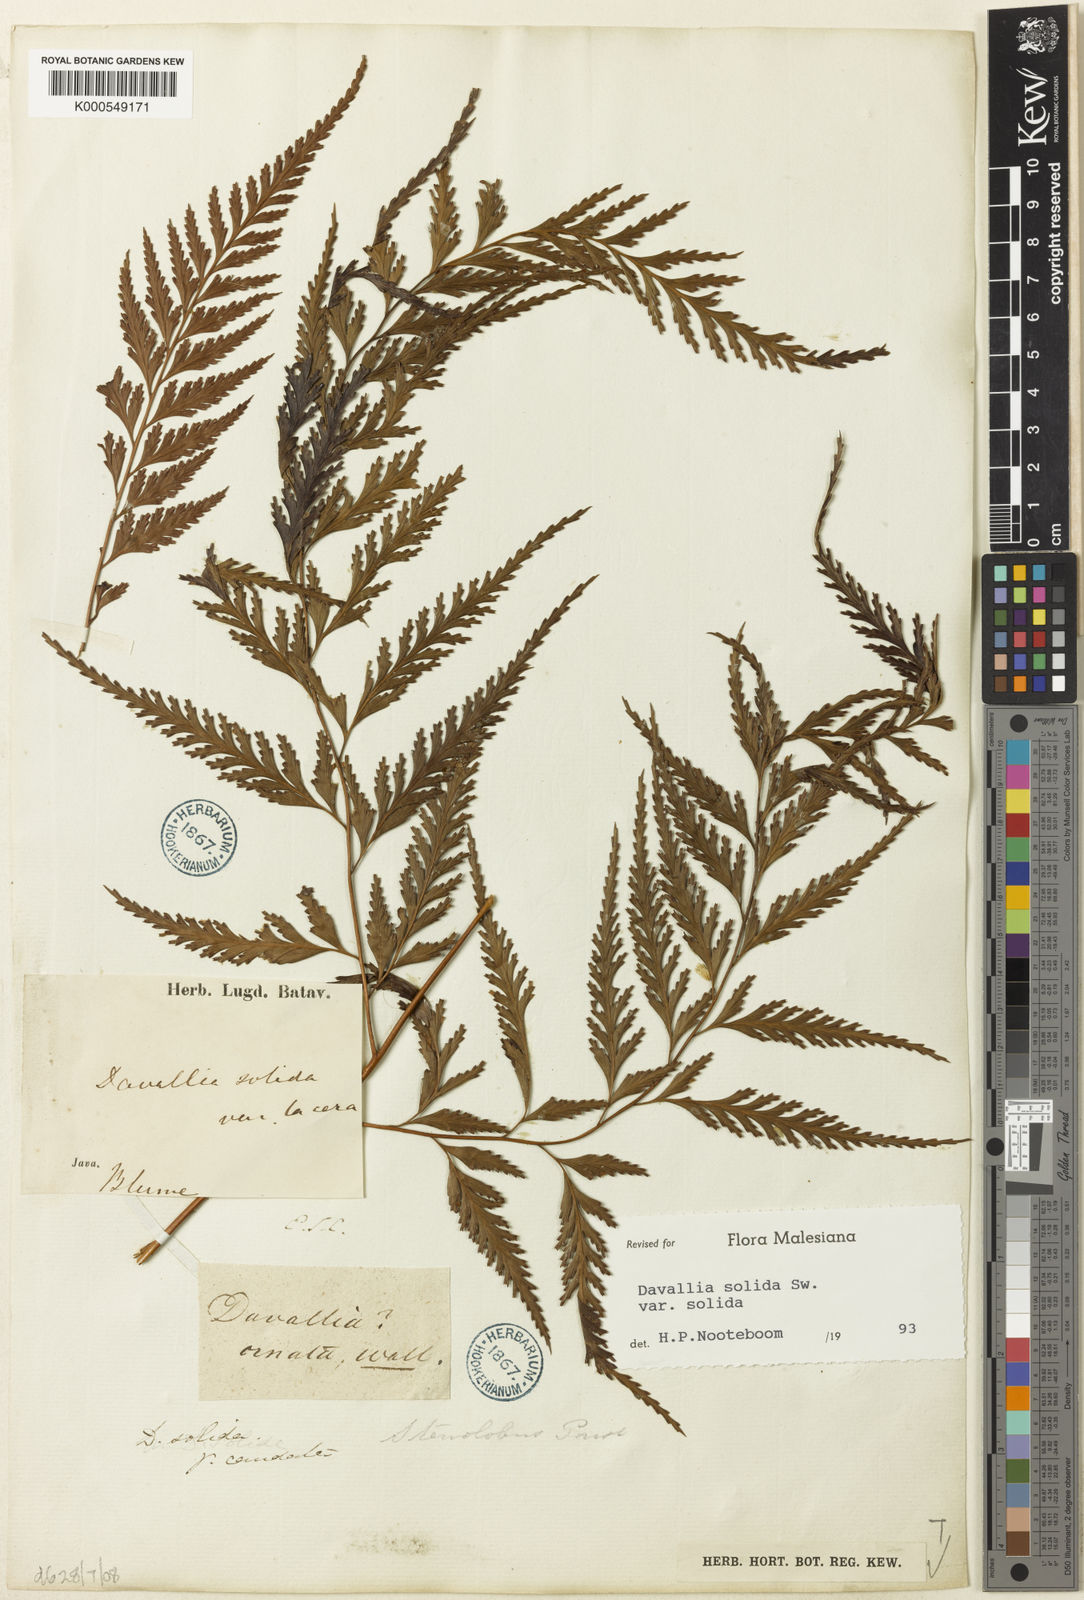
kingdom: Plantae
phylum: Tracheophyta
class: Polypodiopsida
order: Polypodiales
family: Davalliaceae
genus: Davallia
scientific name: Davallia solida
